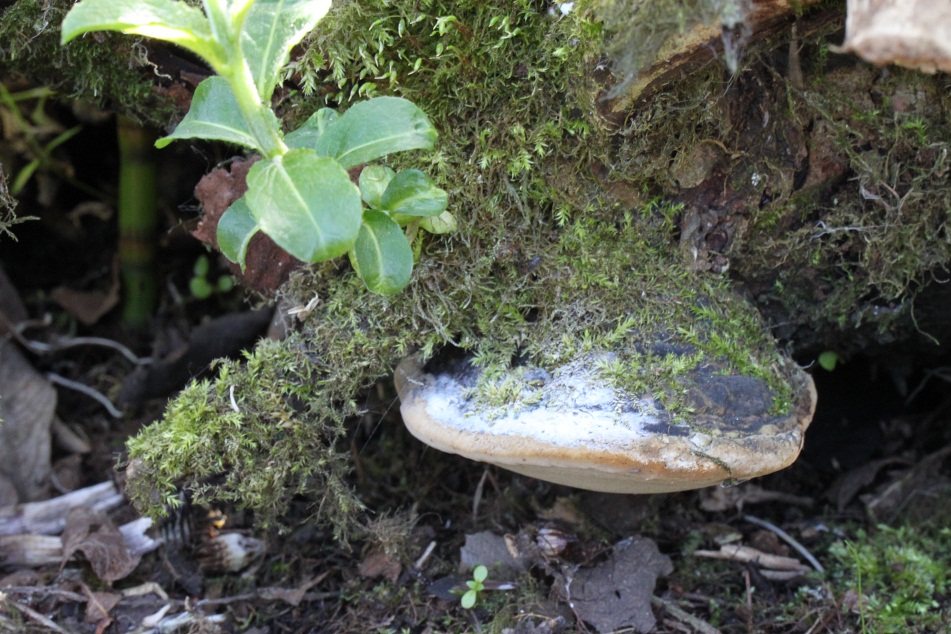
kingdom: Fungi
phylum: Basidiomycota
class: Agaricomycetes
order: Hymenochaetales
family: Hymenochaetaceae
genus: Phellinus
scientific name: Phellinus igniarius
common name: almindelig ildporesvamp
